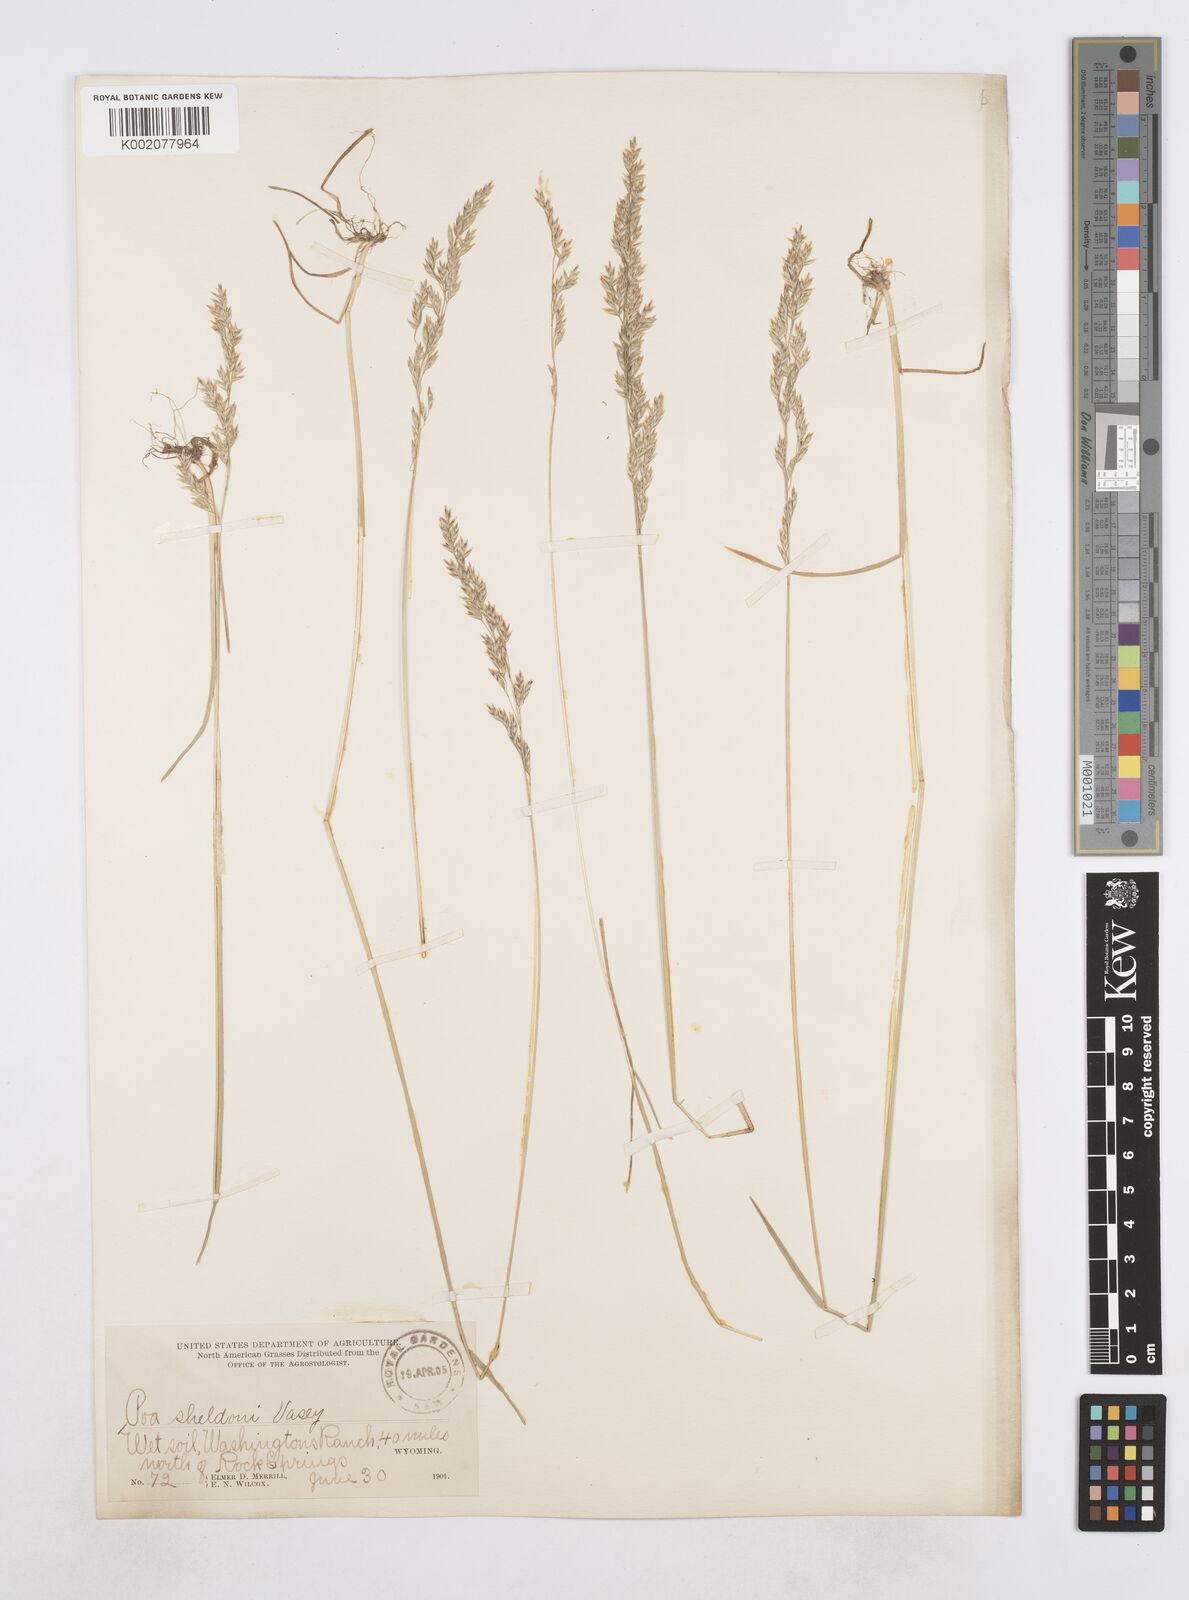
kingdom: Plantae
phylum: Tracheophyta
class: Liliopsida
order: Poales
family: Poaceae
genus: Poa
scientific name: Poa arida
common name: Plains bluegrass
